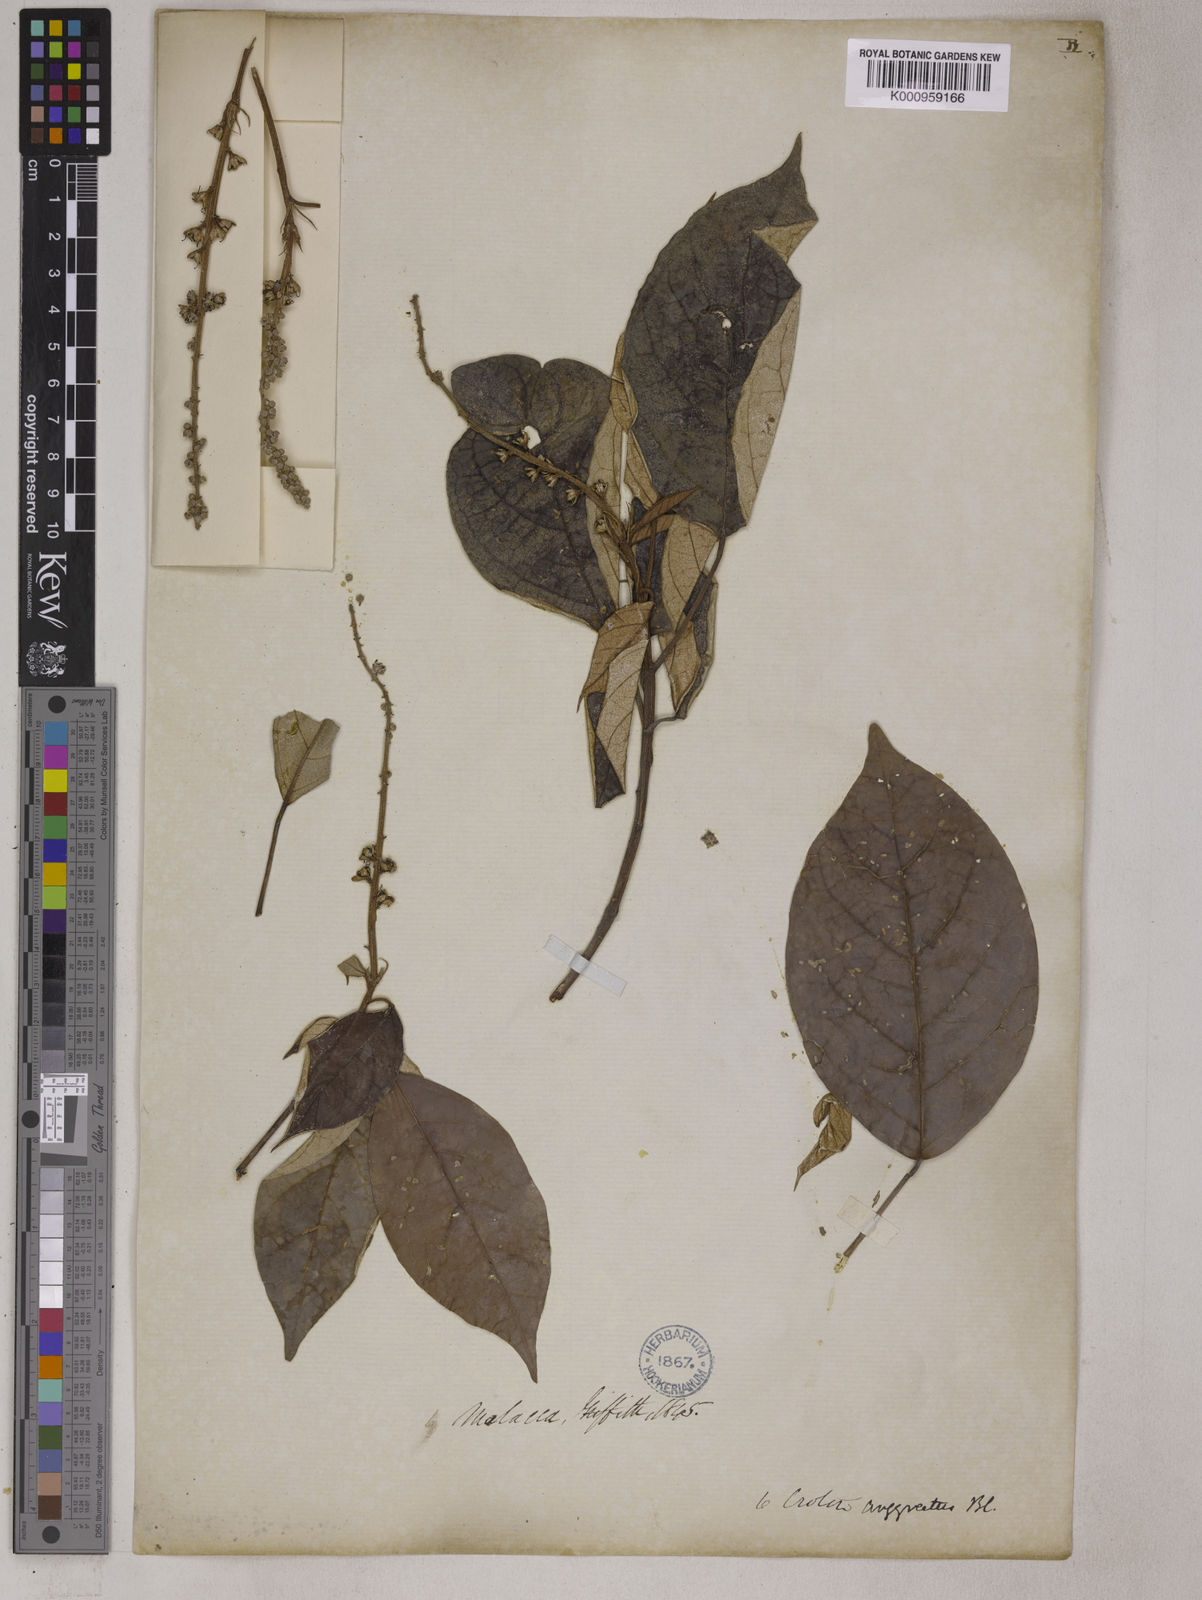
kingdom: Plantae
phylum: Tracheophyta
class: Magnoliopsida
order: Malpighiales
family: Euphorbiaceae
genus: Croton
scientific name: Croton argyratus
